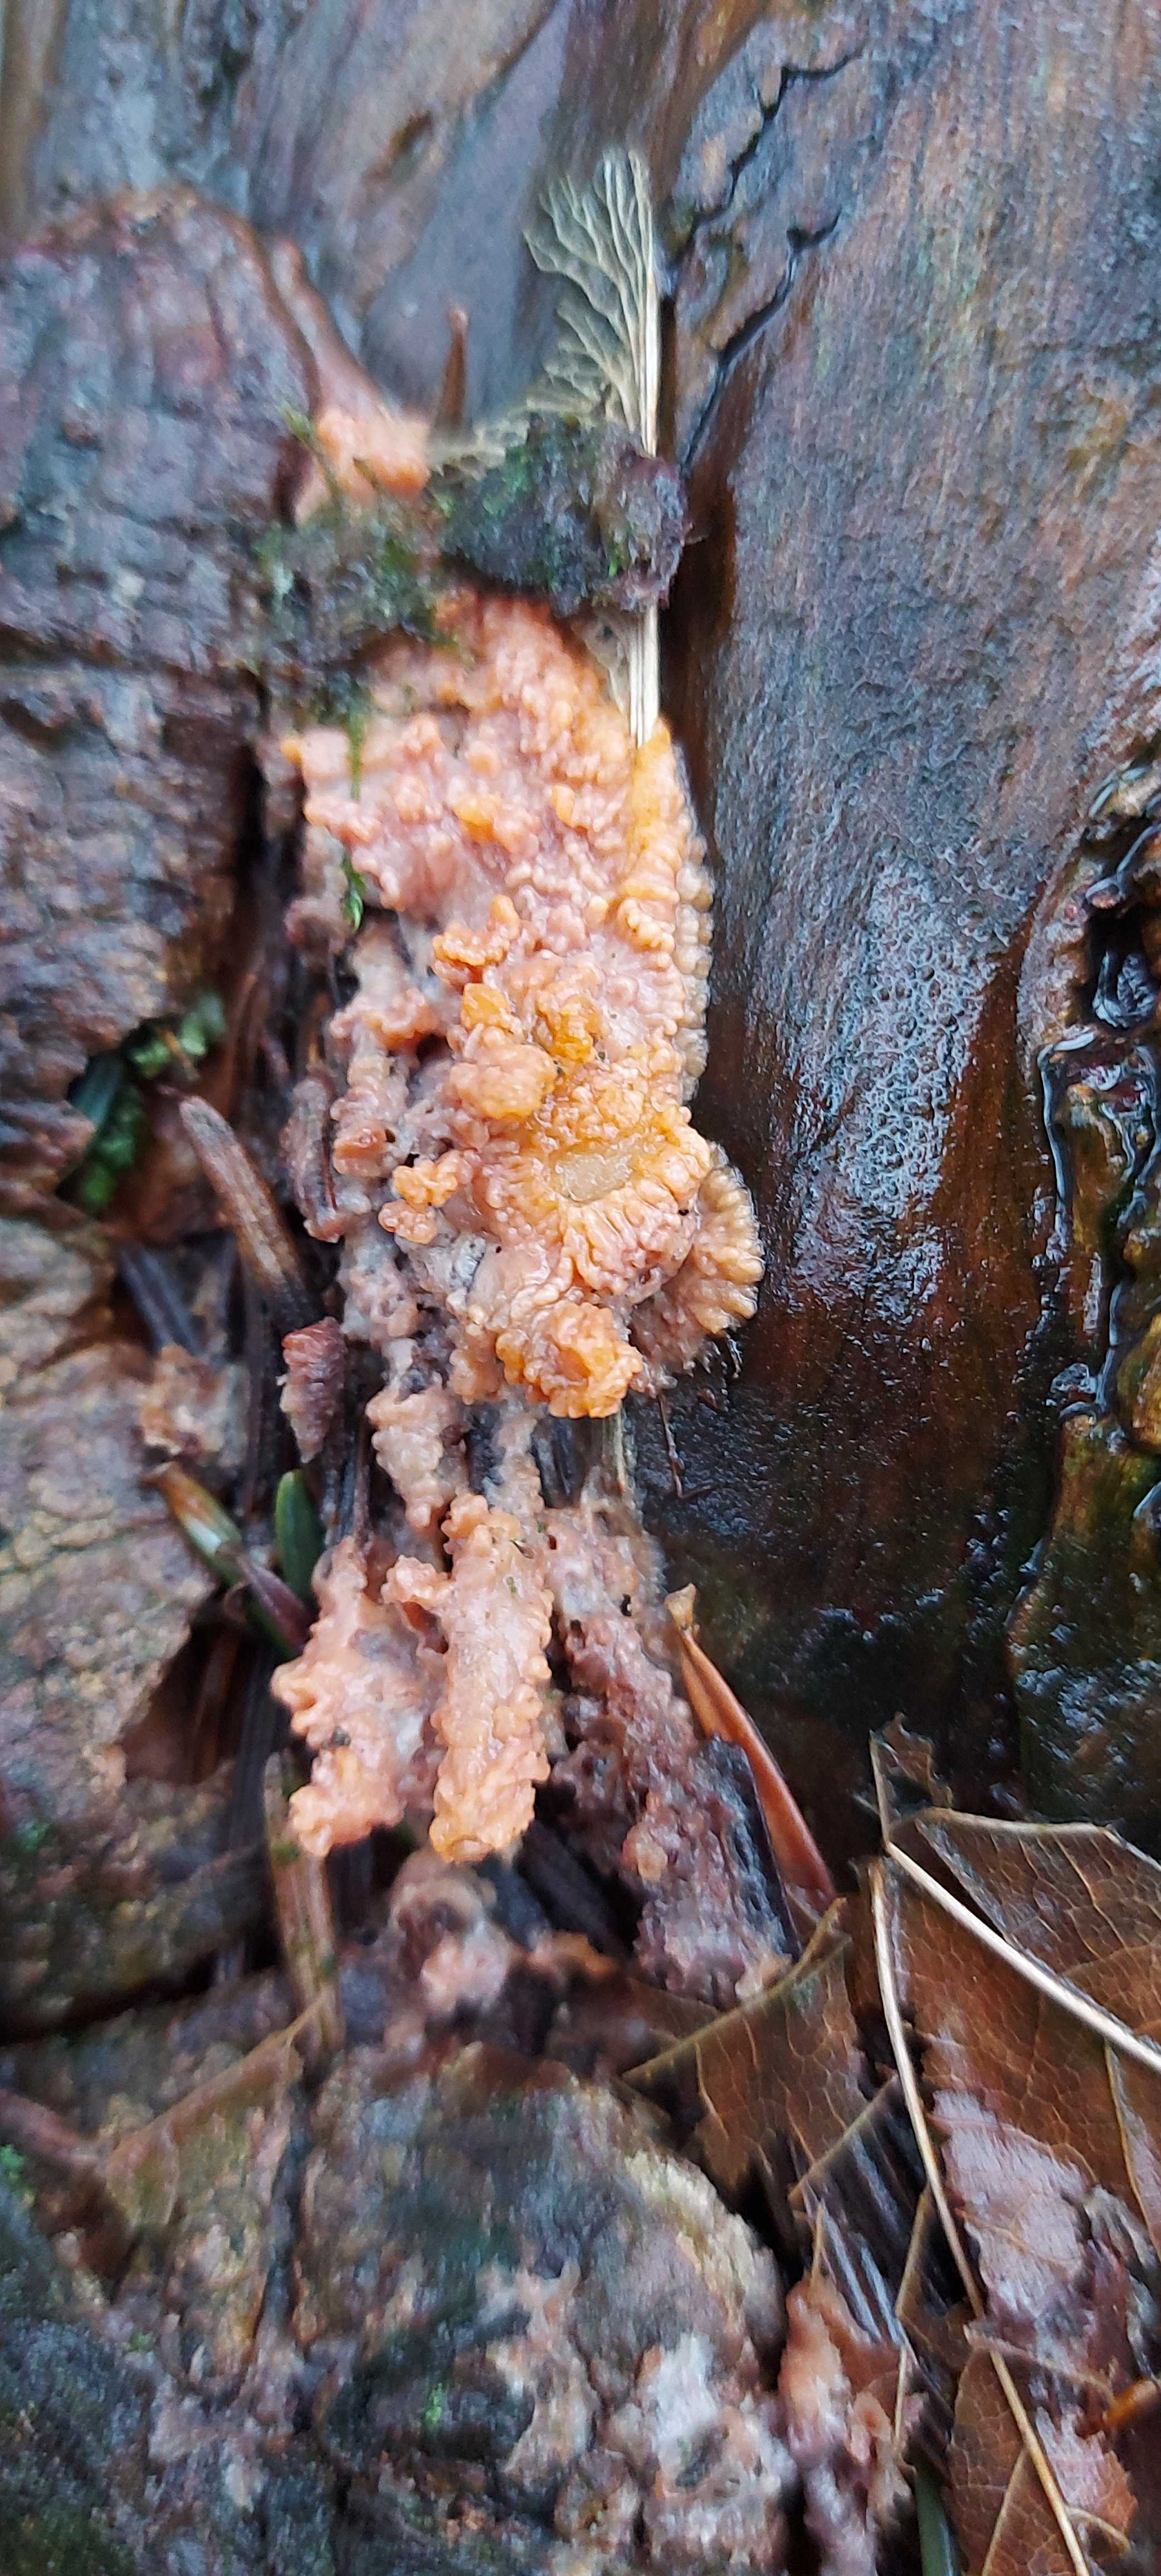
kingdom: Fungi
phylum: Basidiomycota
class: Agaricomycetes
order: Polyporales
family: Meruliaceae
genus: Phlebia
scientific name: Phlebia radiata
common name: stråle-åresvamp
